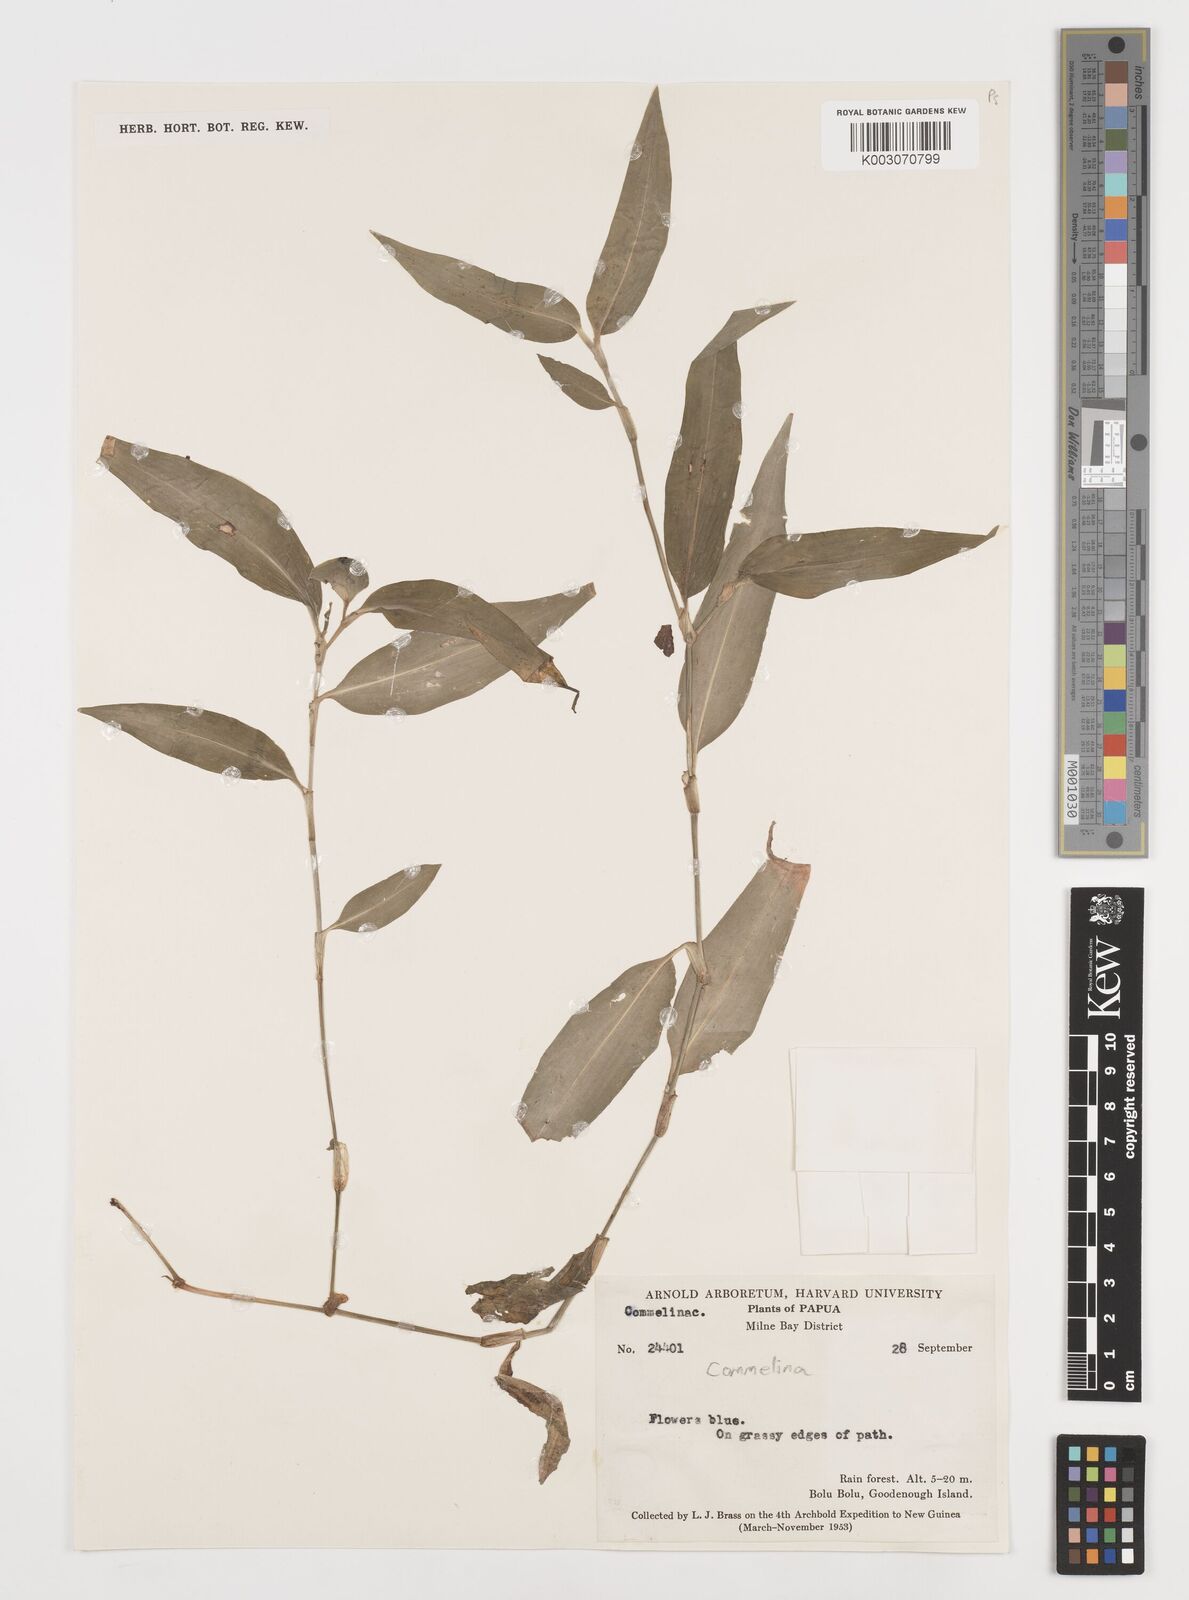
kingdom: Plantae
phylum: Tracheophyta
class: Liliopsida
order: Commelinales
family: Commelinaceae
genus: Commelina
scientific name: Commelina
